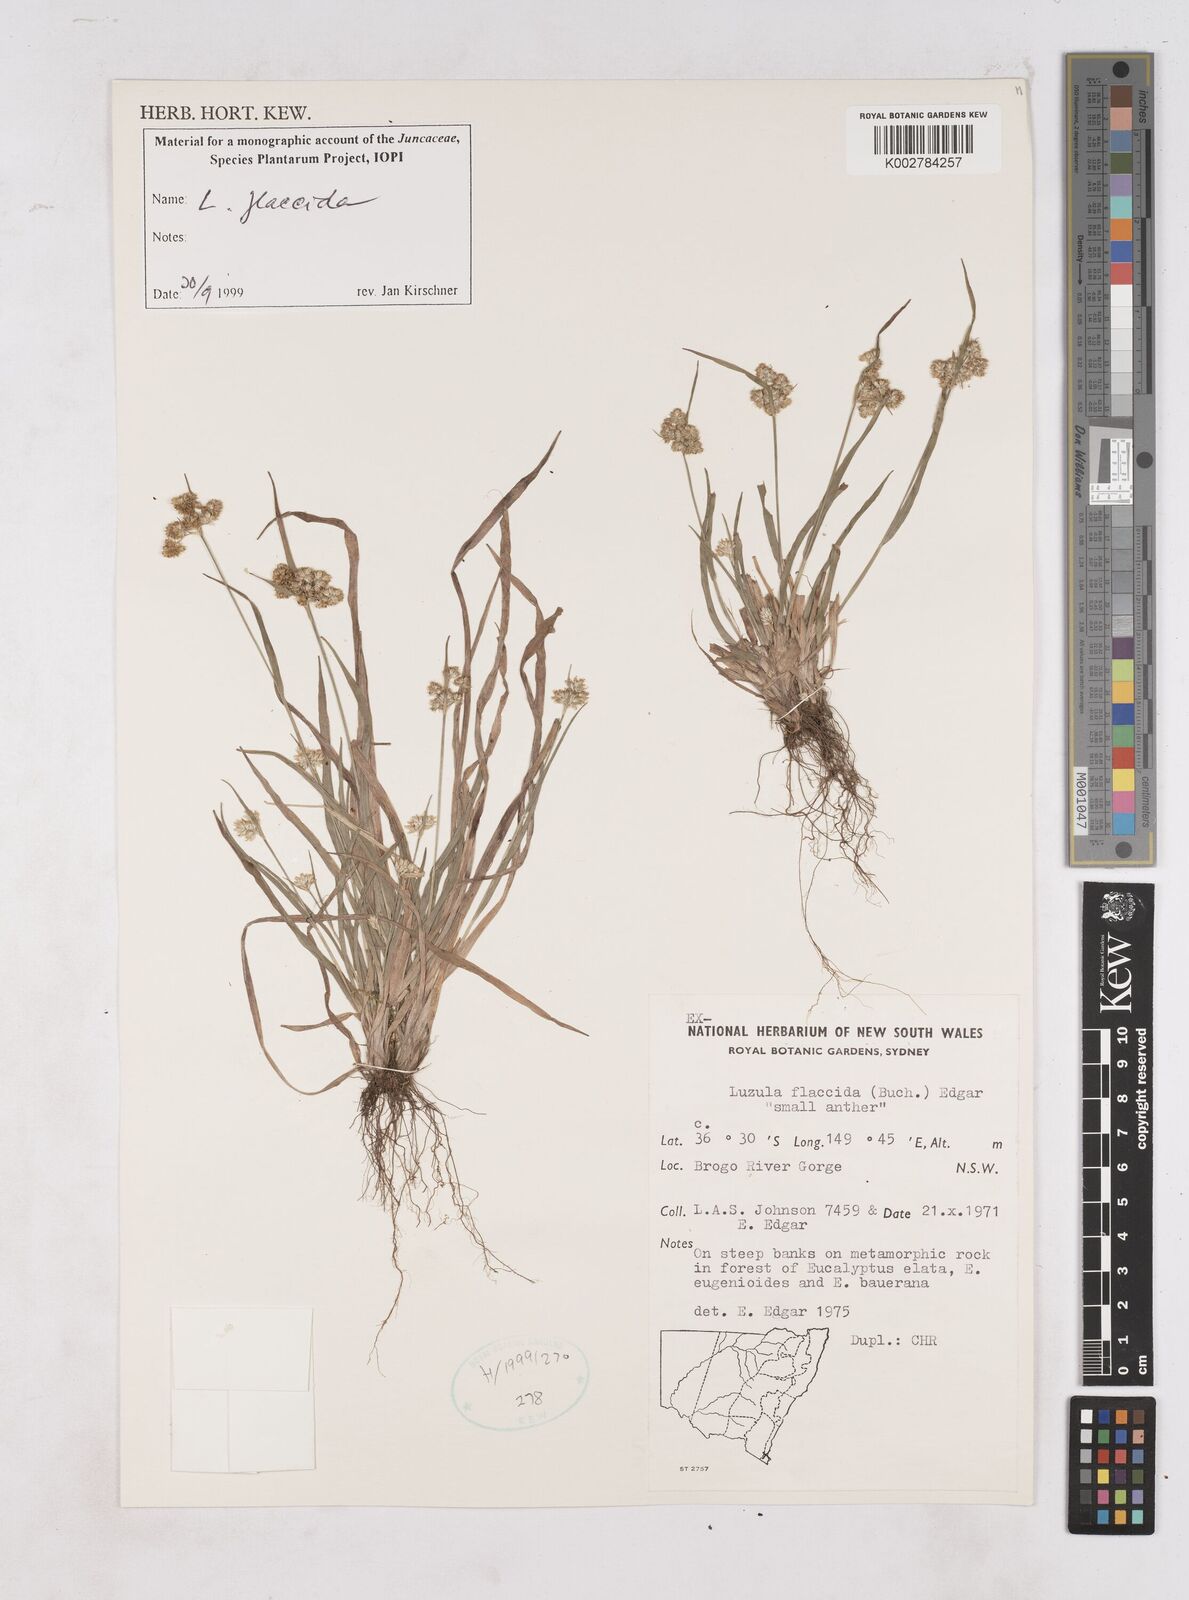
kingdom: Plantae
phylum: Tracheophyta
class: Liliopsida
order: Poales
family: Juncaceae
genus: Luzula
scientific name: Luzula flaccida
